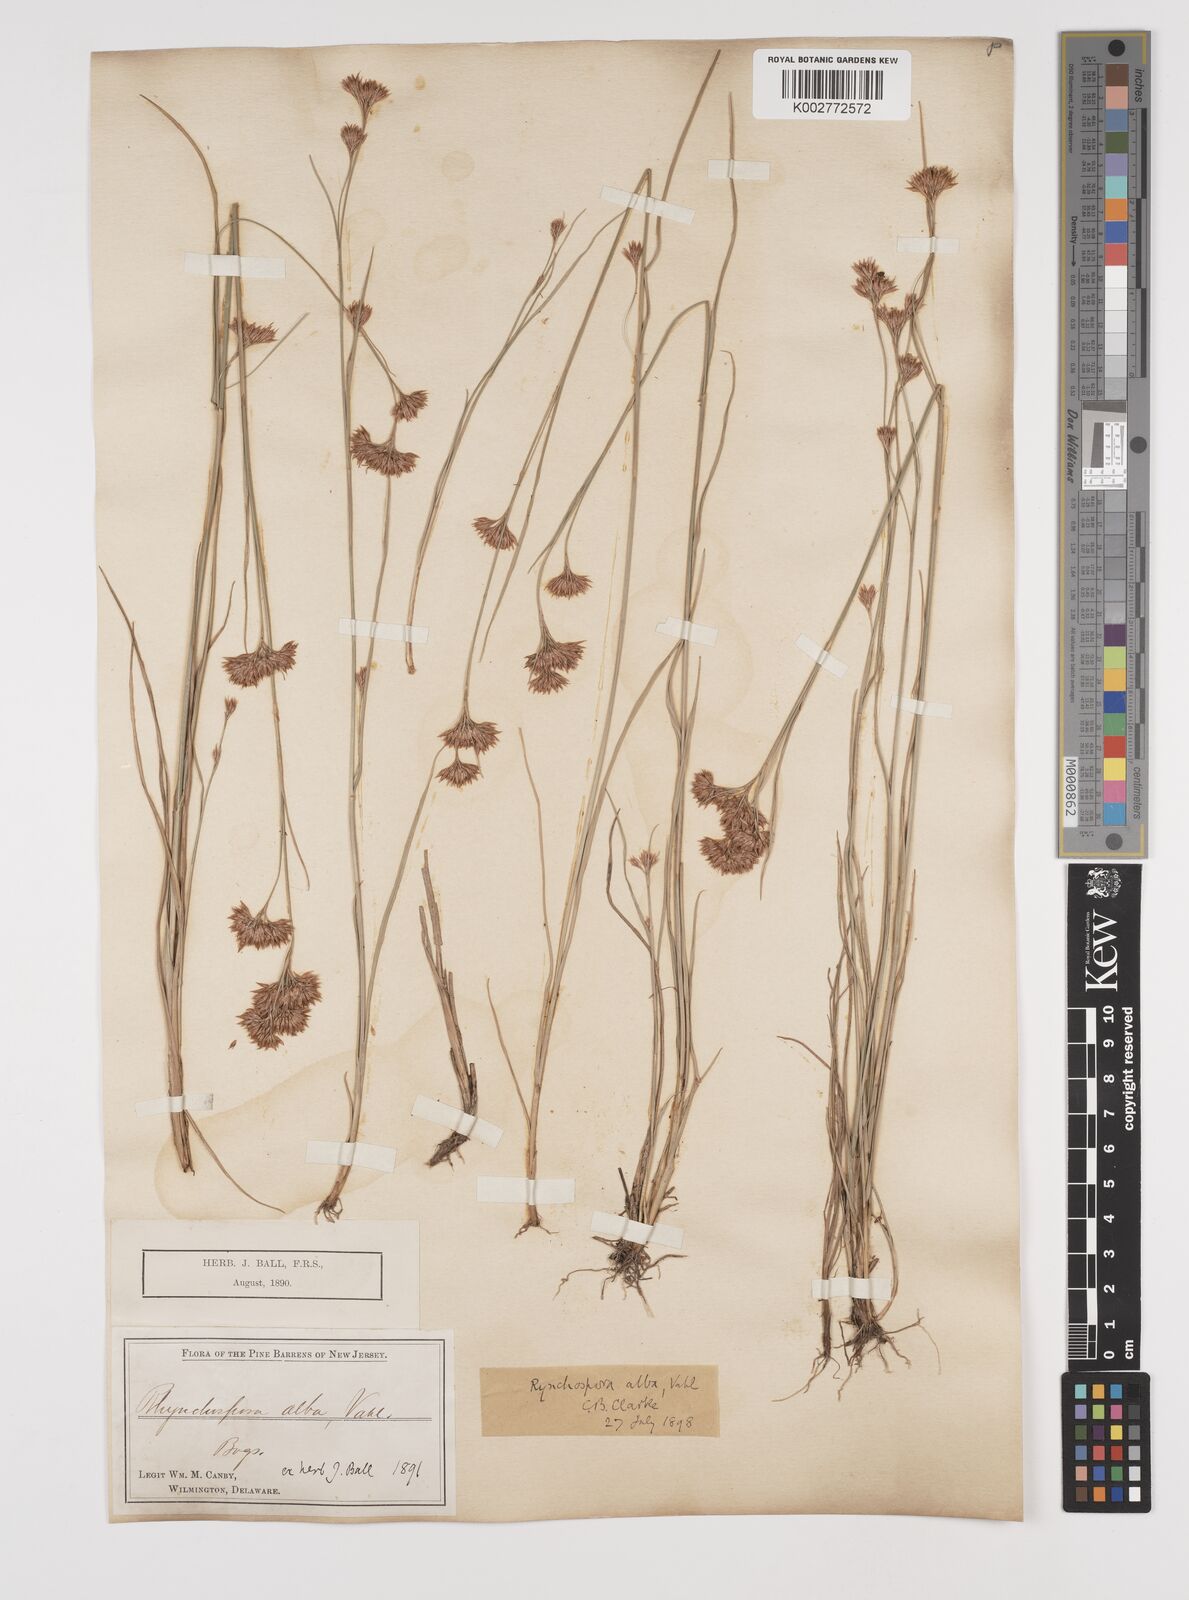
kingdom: Plantae
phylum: Tracheophyta
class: Liliopsida
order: Poales
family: Cyperaceae
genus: Rhynchospora
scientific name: Rhynchospora alba
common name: White beak-sedge
